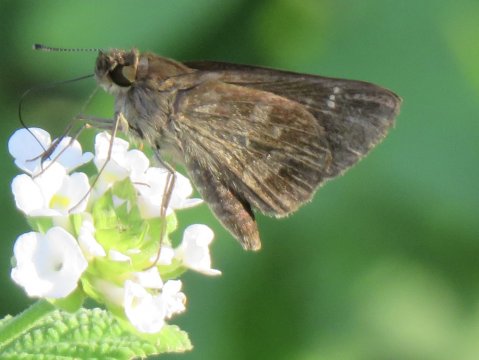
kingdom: Animalia
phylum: Arthropoda
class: Insecta
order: Lepidoptera
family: Hesperiidae
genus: Cymaenes
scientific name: Cymaenes odilia
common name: Fawn-spotted Skipper
